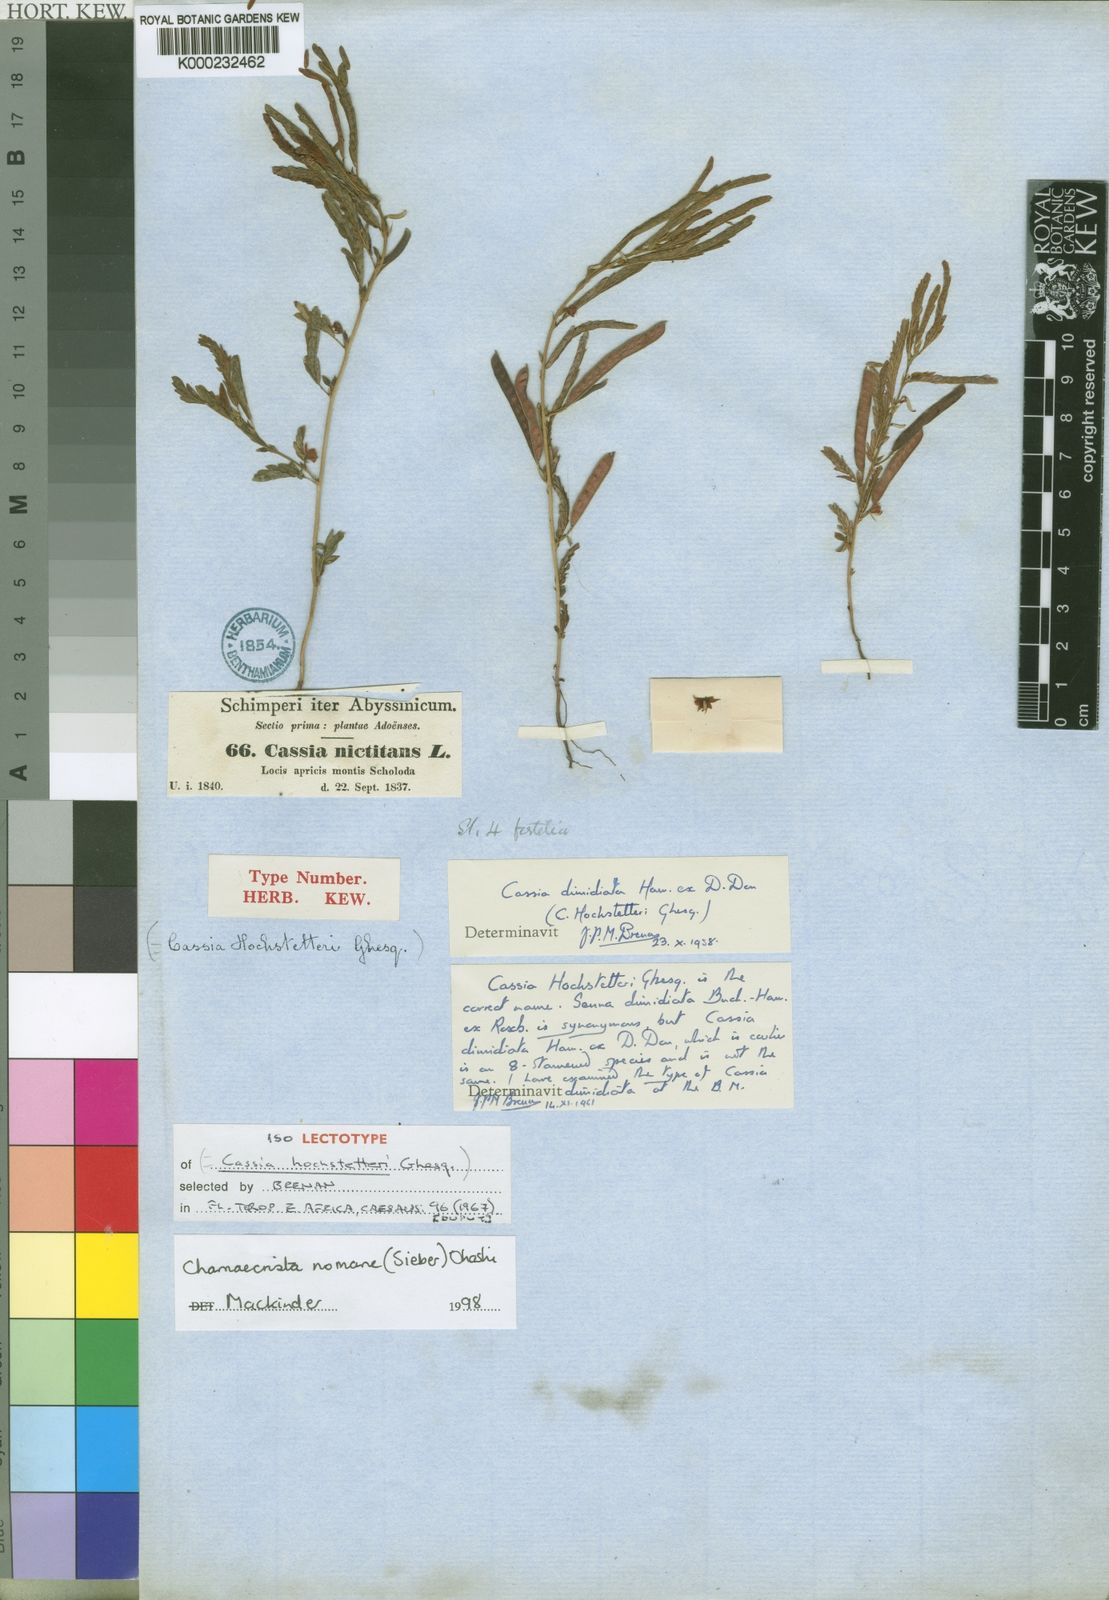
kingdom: Plantae
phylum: Tracheophyta
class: Magnoliopsida
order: Fabales
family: Fabaceae
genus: Chamaecrista
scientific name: Chamaecrista
